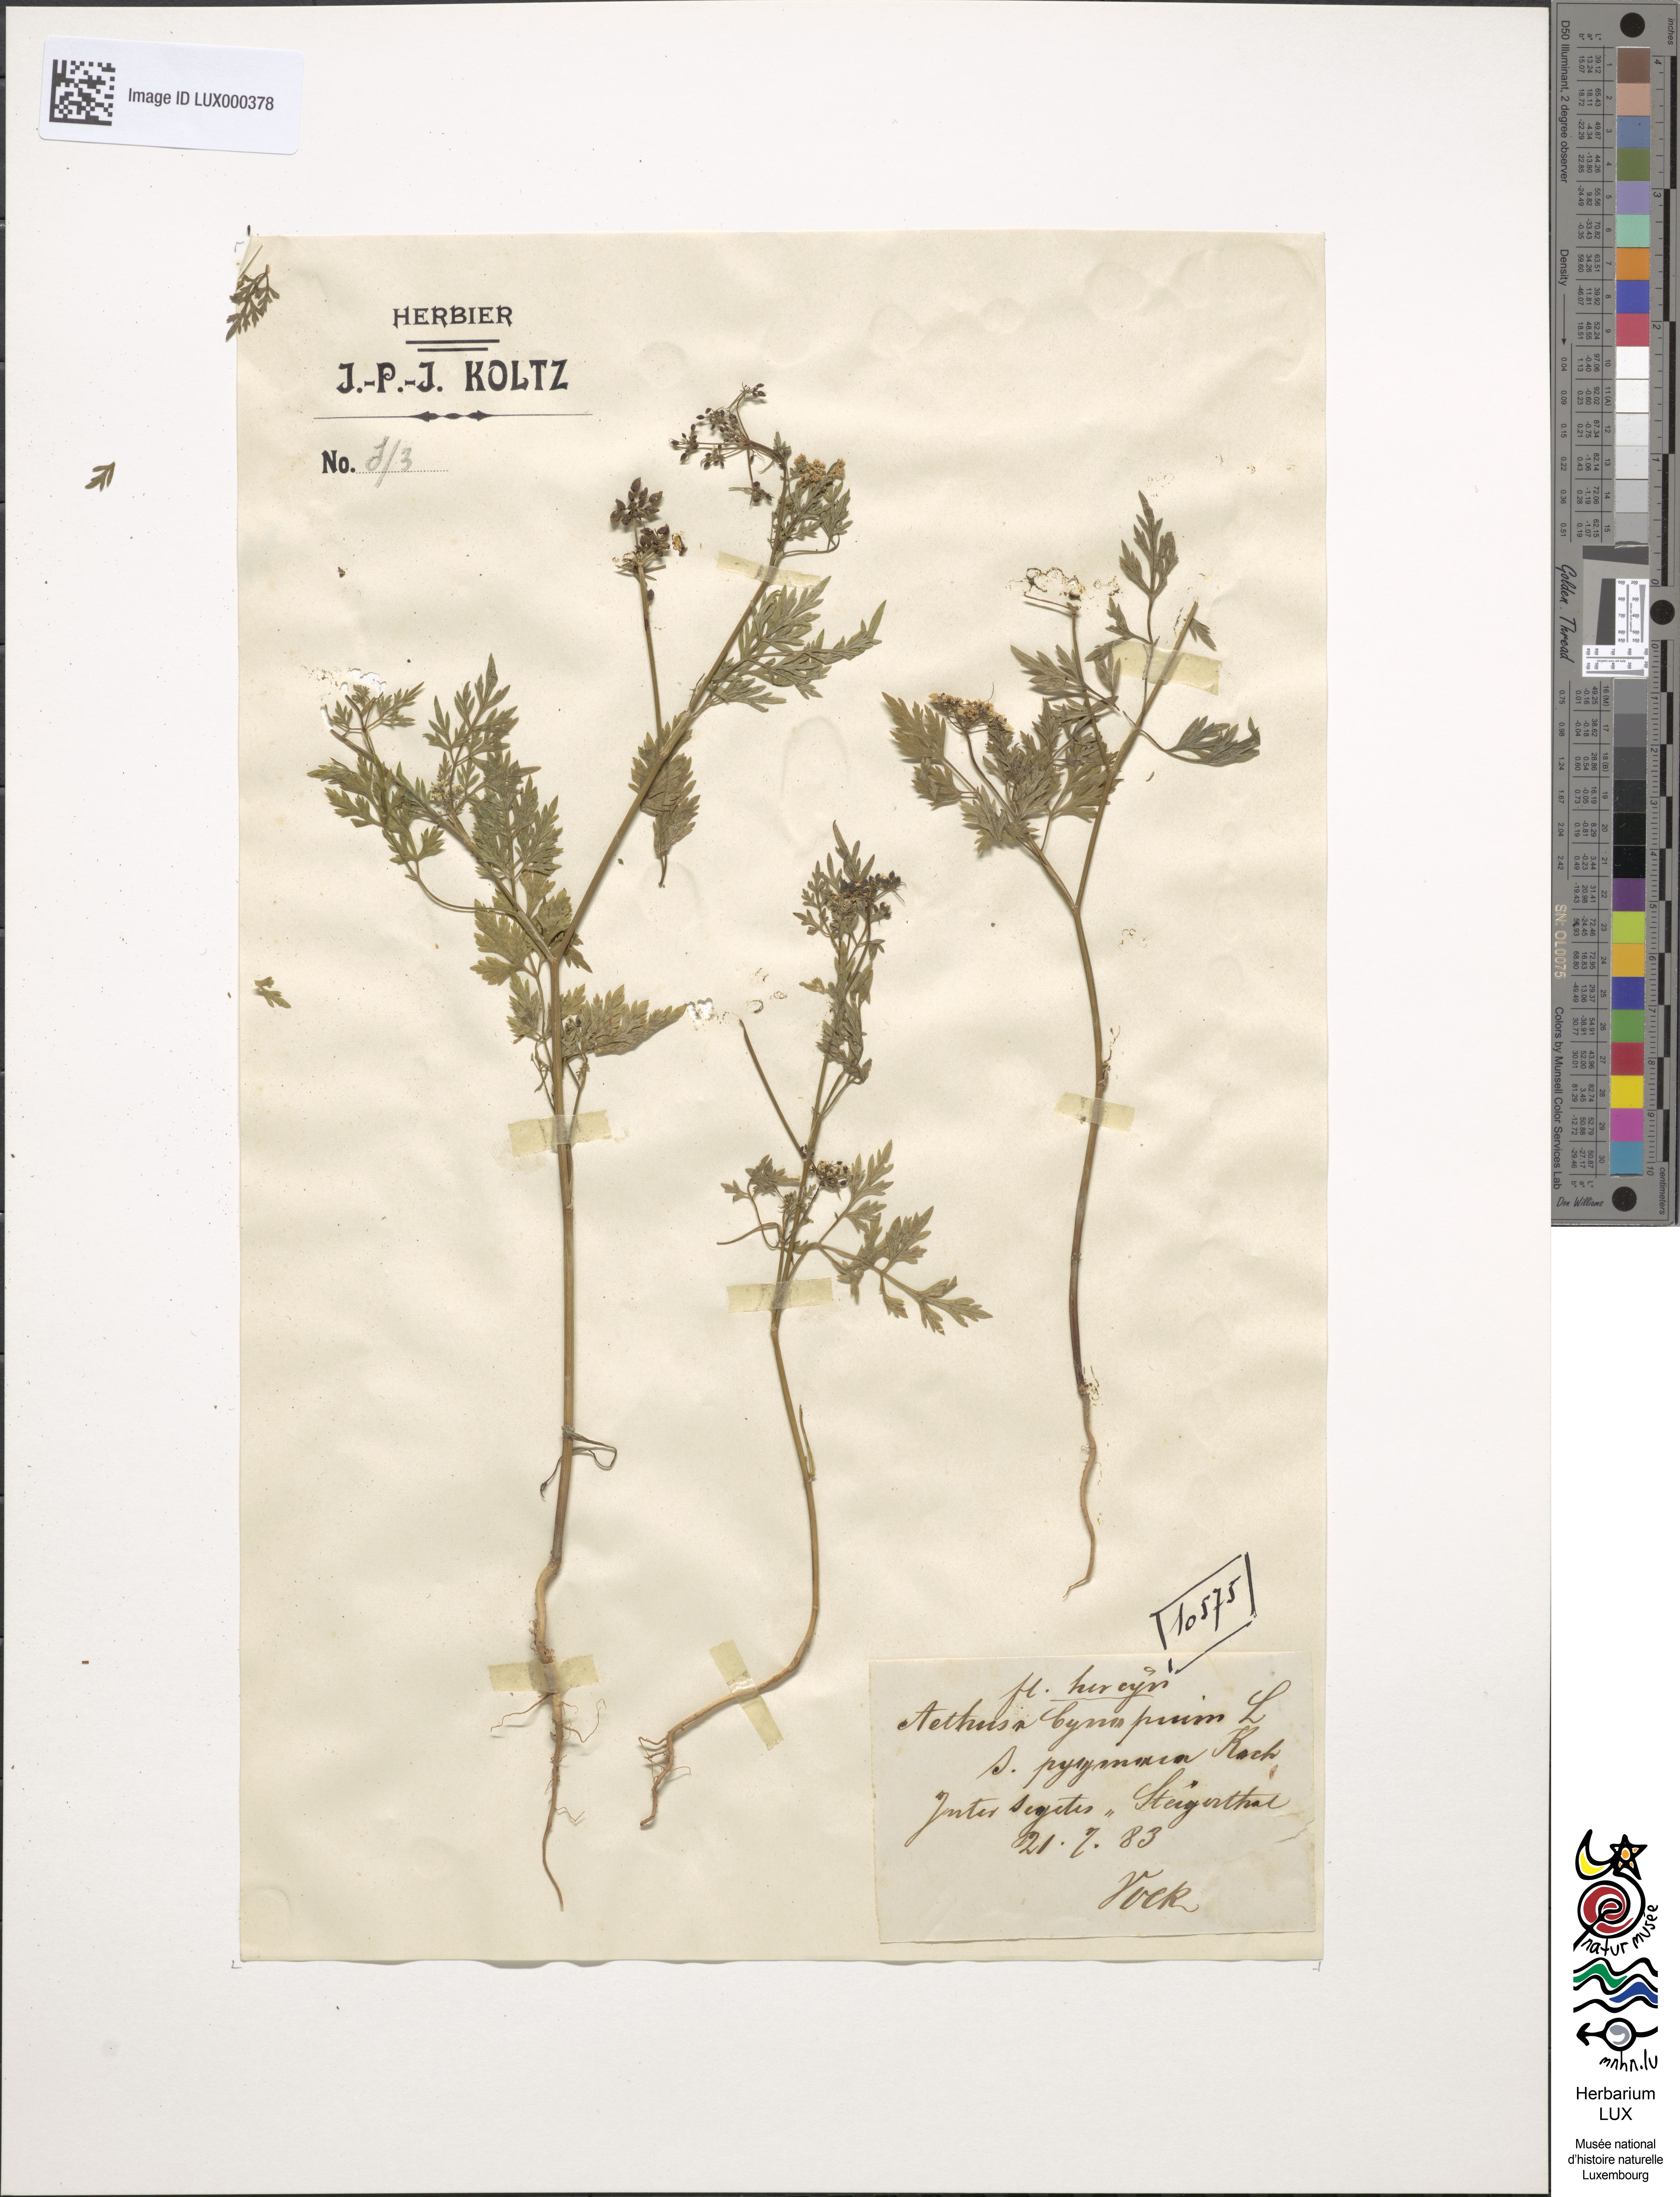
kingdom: Plantae
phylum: Tracheophyta
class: Magnoliopsida
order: Apiales
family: Apiaceae
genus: Aethusa
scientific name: Aethusa cynapium
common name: Fool's parsley
